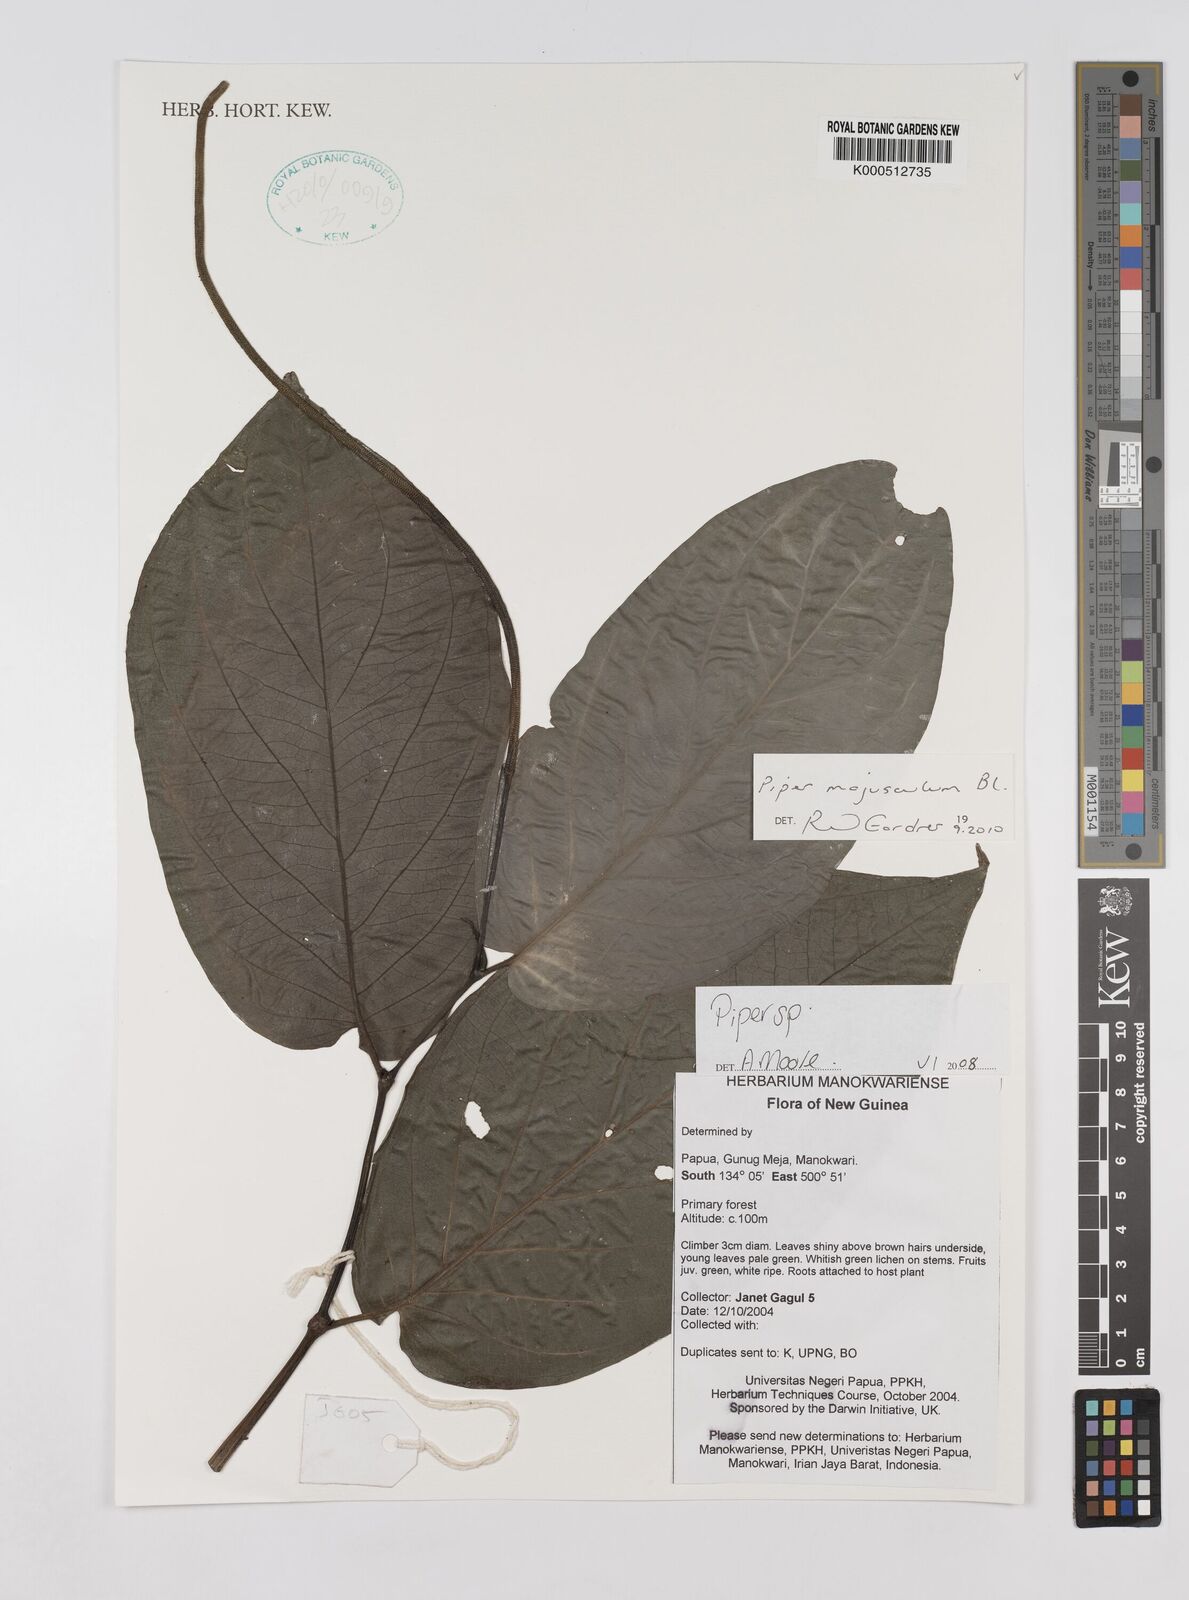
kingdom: Plantae
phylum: Tracheophyta
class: Magnoliopsida
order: Piperales
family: Piperaceae
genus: Piper
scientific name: Piper
